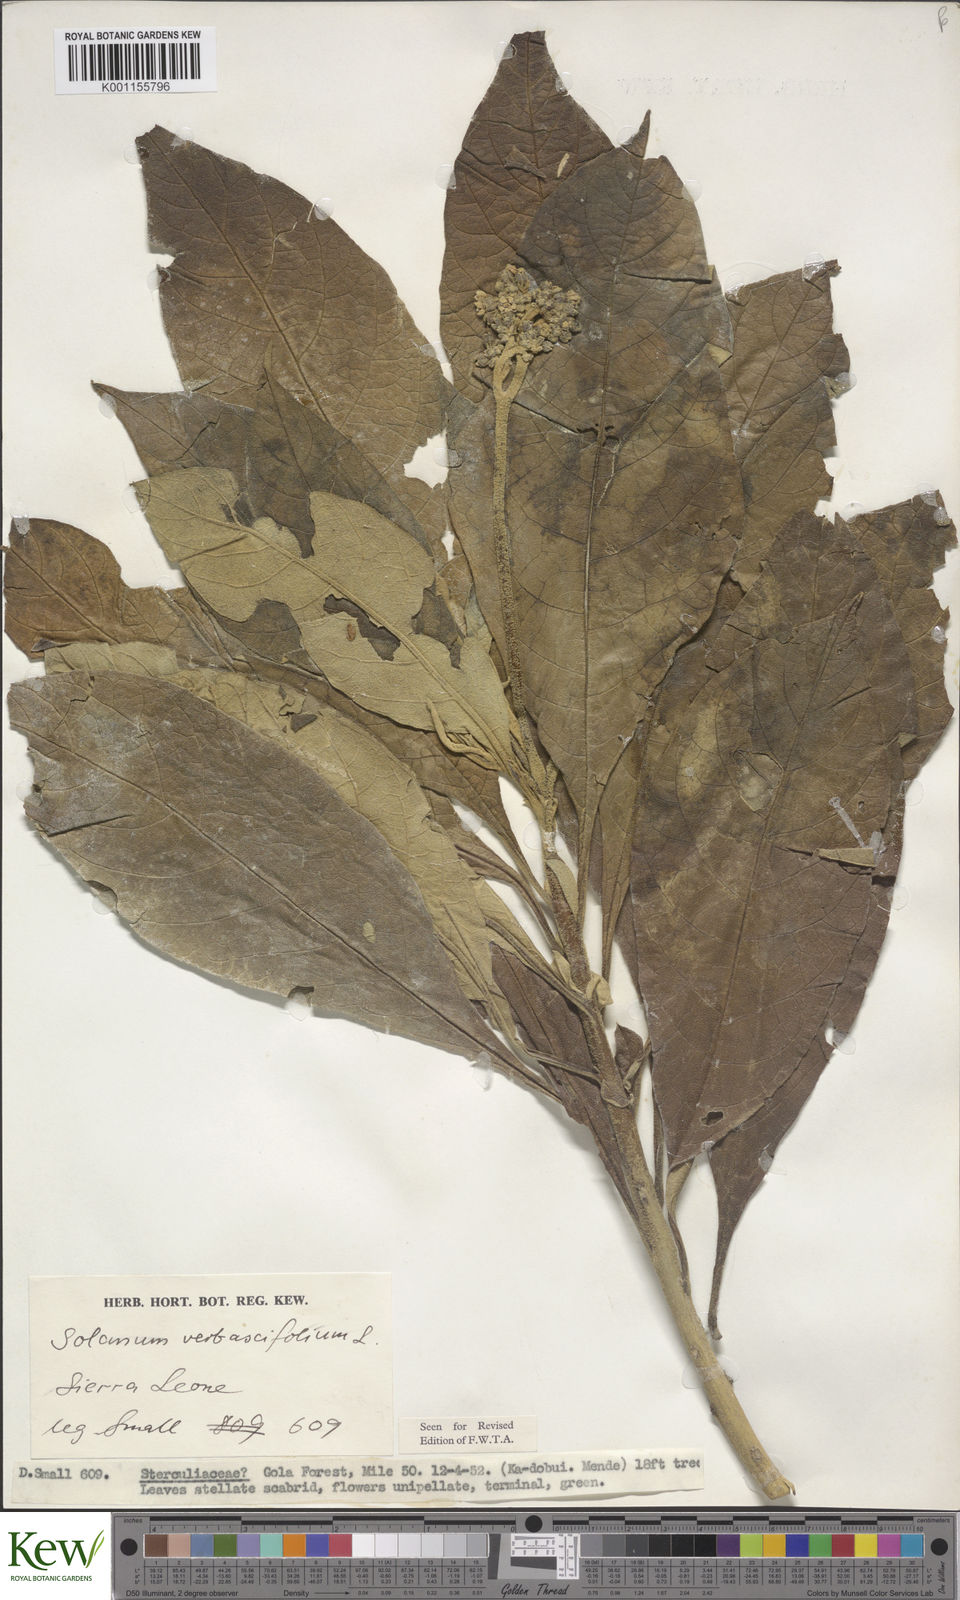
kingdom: Plantae
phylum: Tracheophyta
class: Magnoliopsida
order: Solanales
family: Solanaceae
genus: Solanum
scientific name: Solanum rugosum
